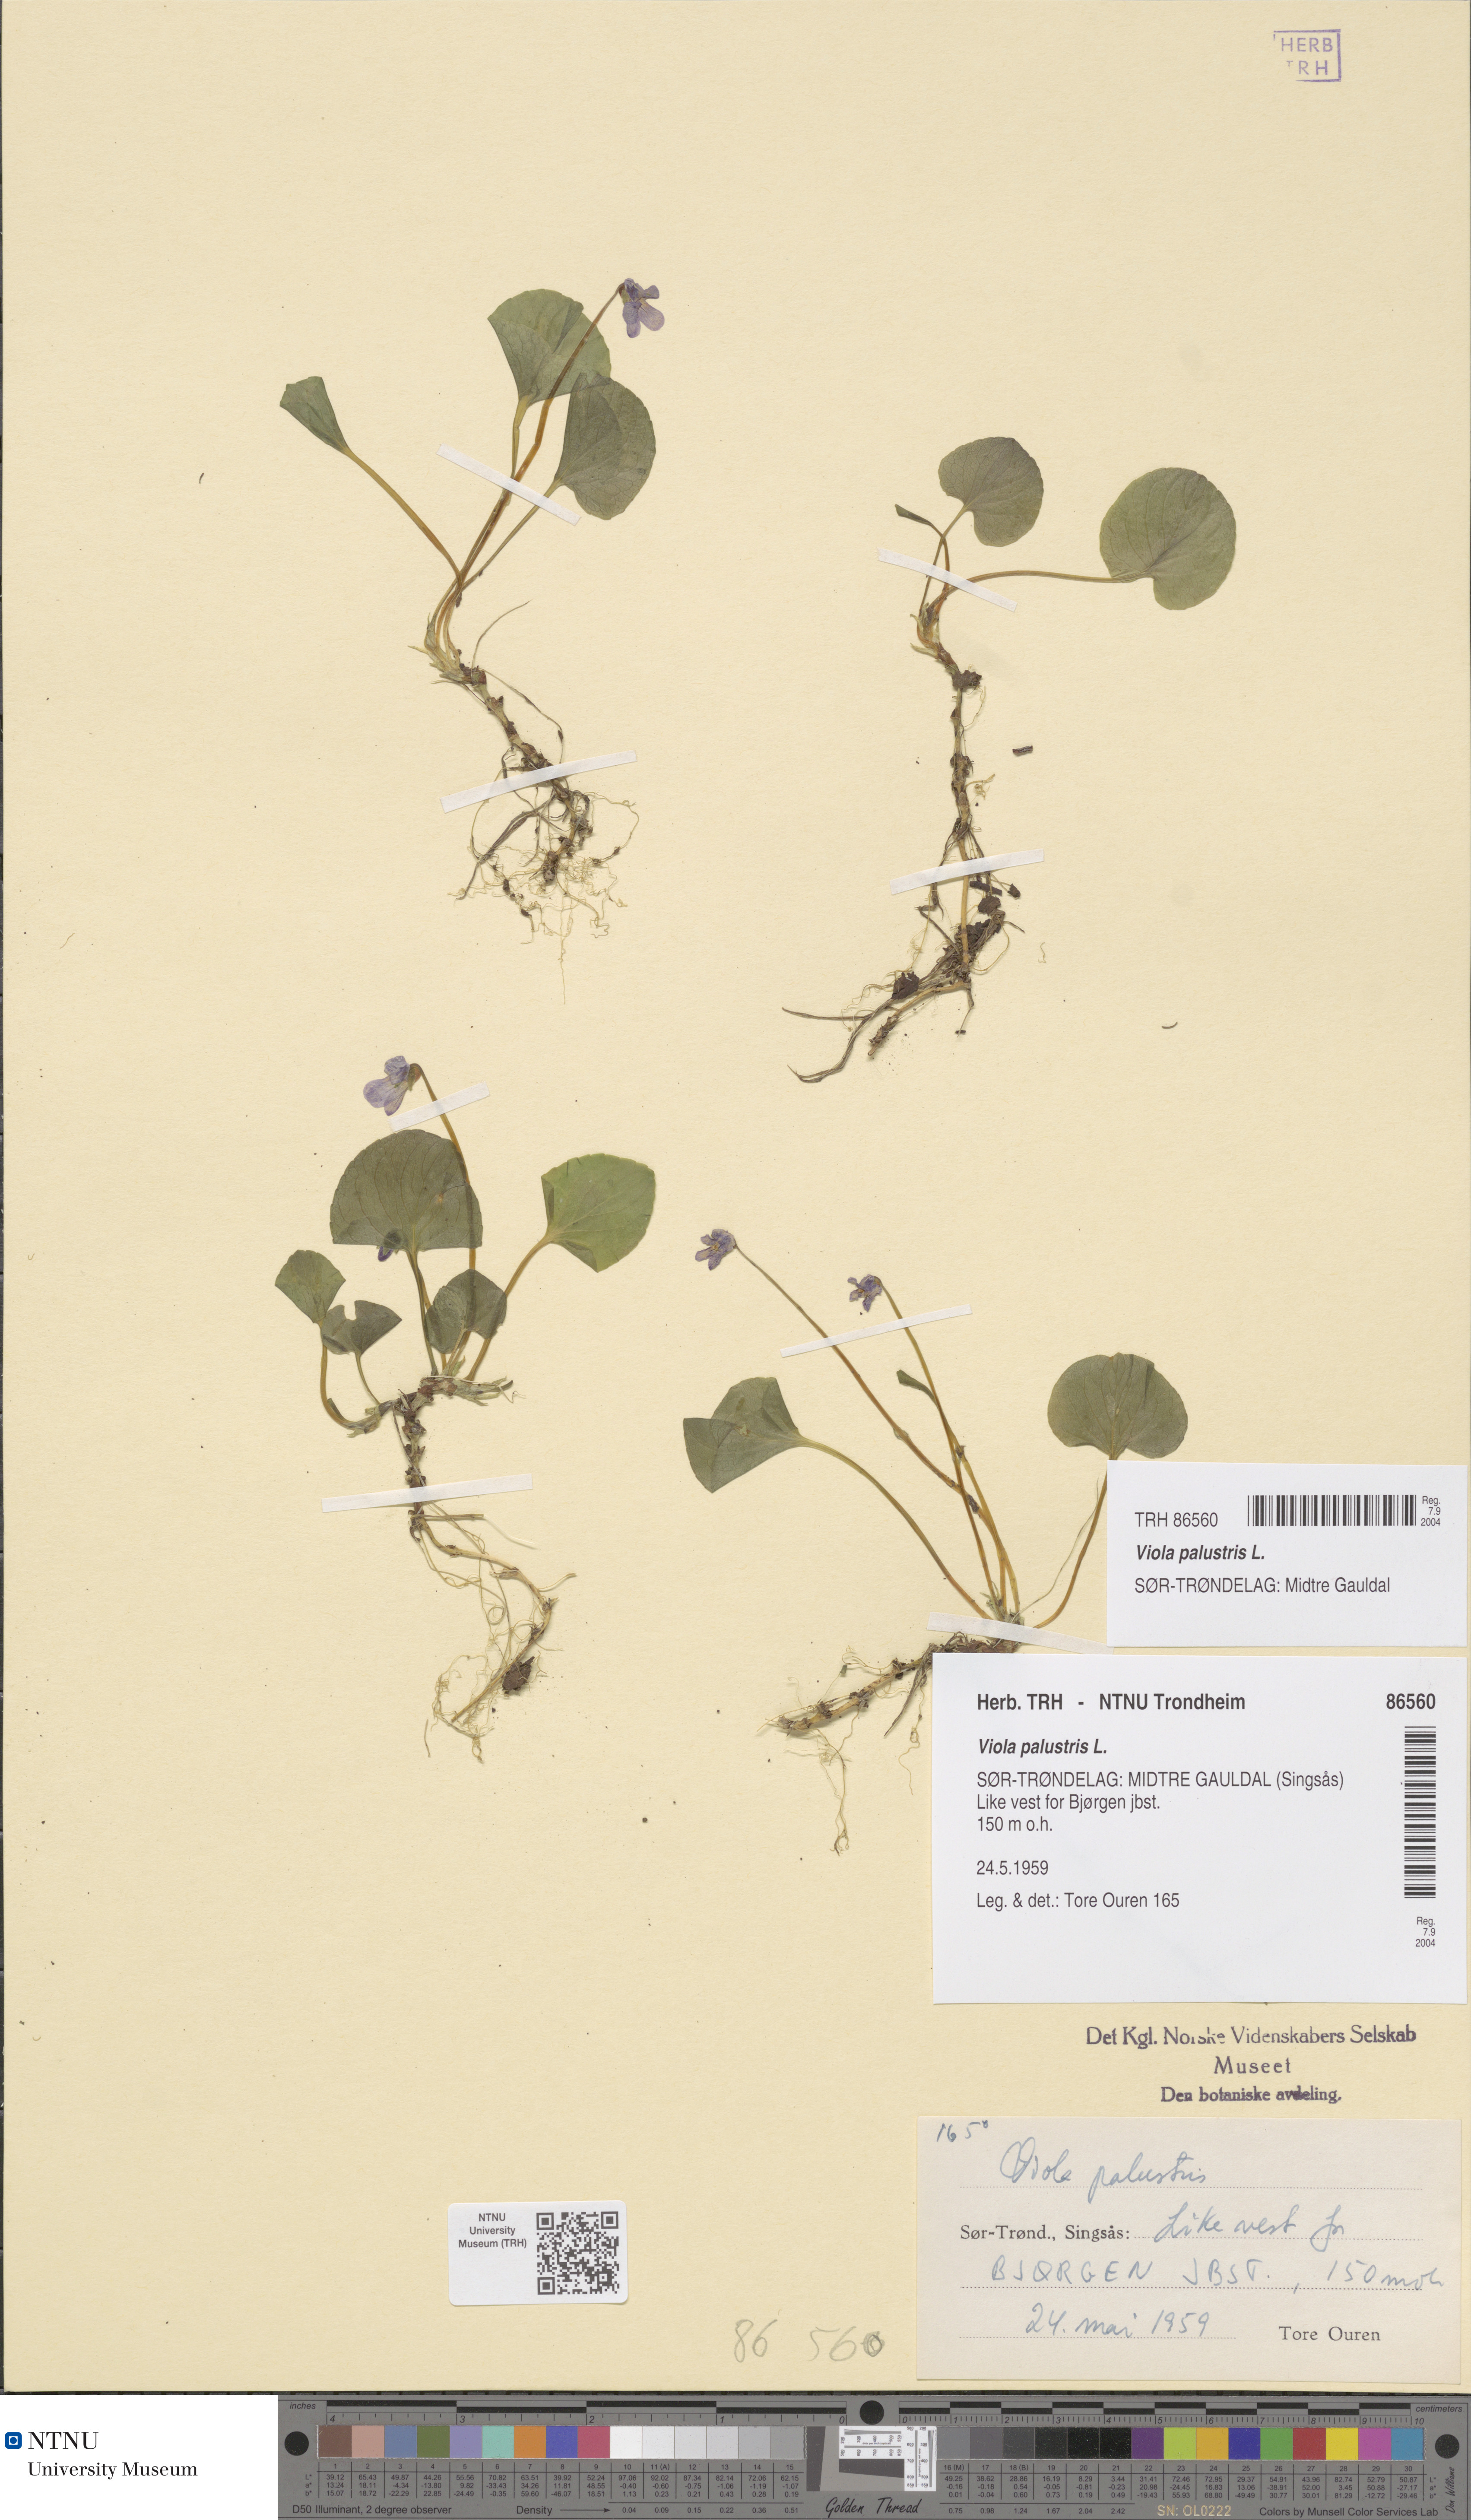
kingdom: Plantae
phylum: Tracheophyta
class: Magnoliopsida
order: Malpighiales
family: Violaceae
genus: Viola
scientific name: Viola palustris
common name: Marsh violet
